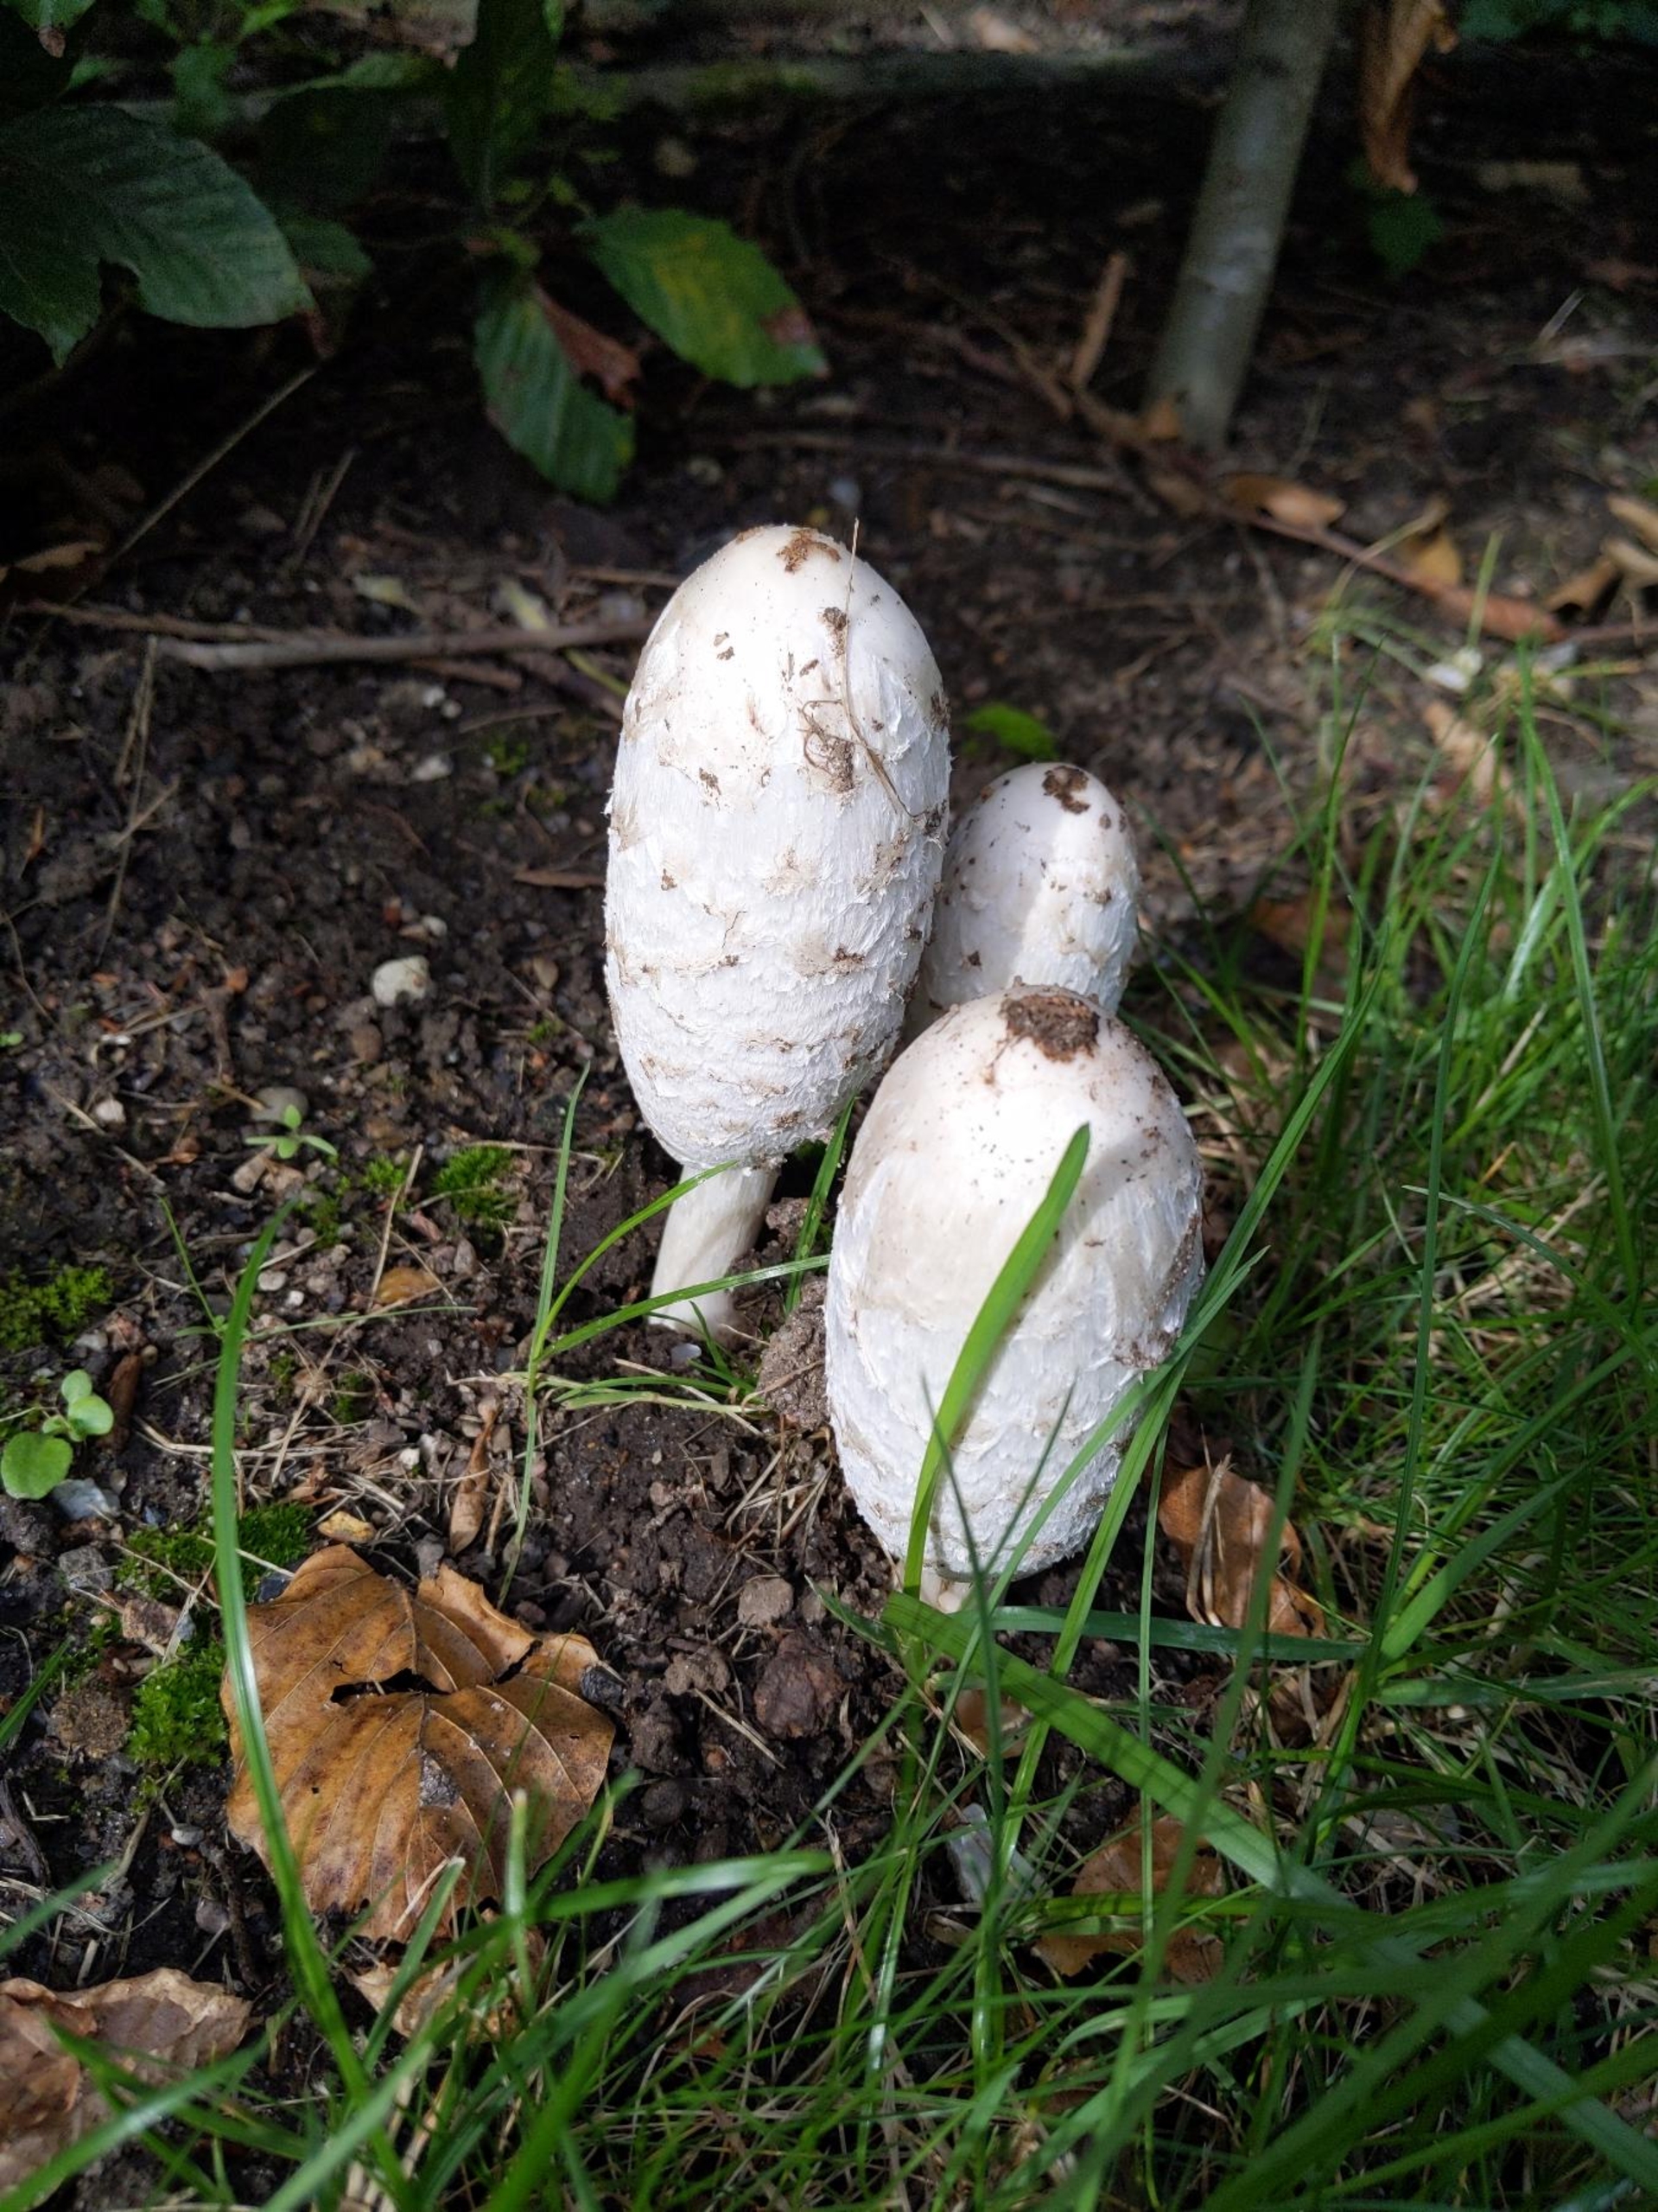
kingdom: Fungi
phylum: Basidiomycota
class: Agaricomycetes
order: Agaricales
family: Agaricaceae
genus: Coprinus
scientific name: Coprinus comatus
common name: Stor parykhat
